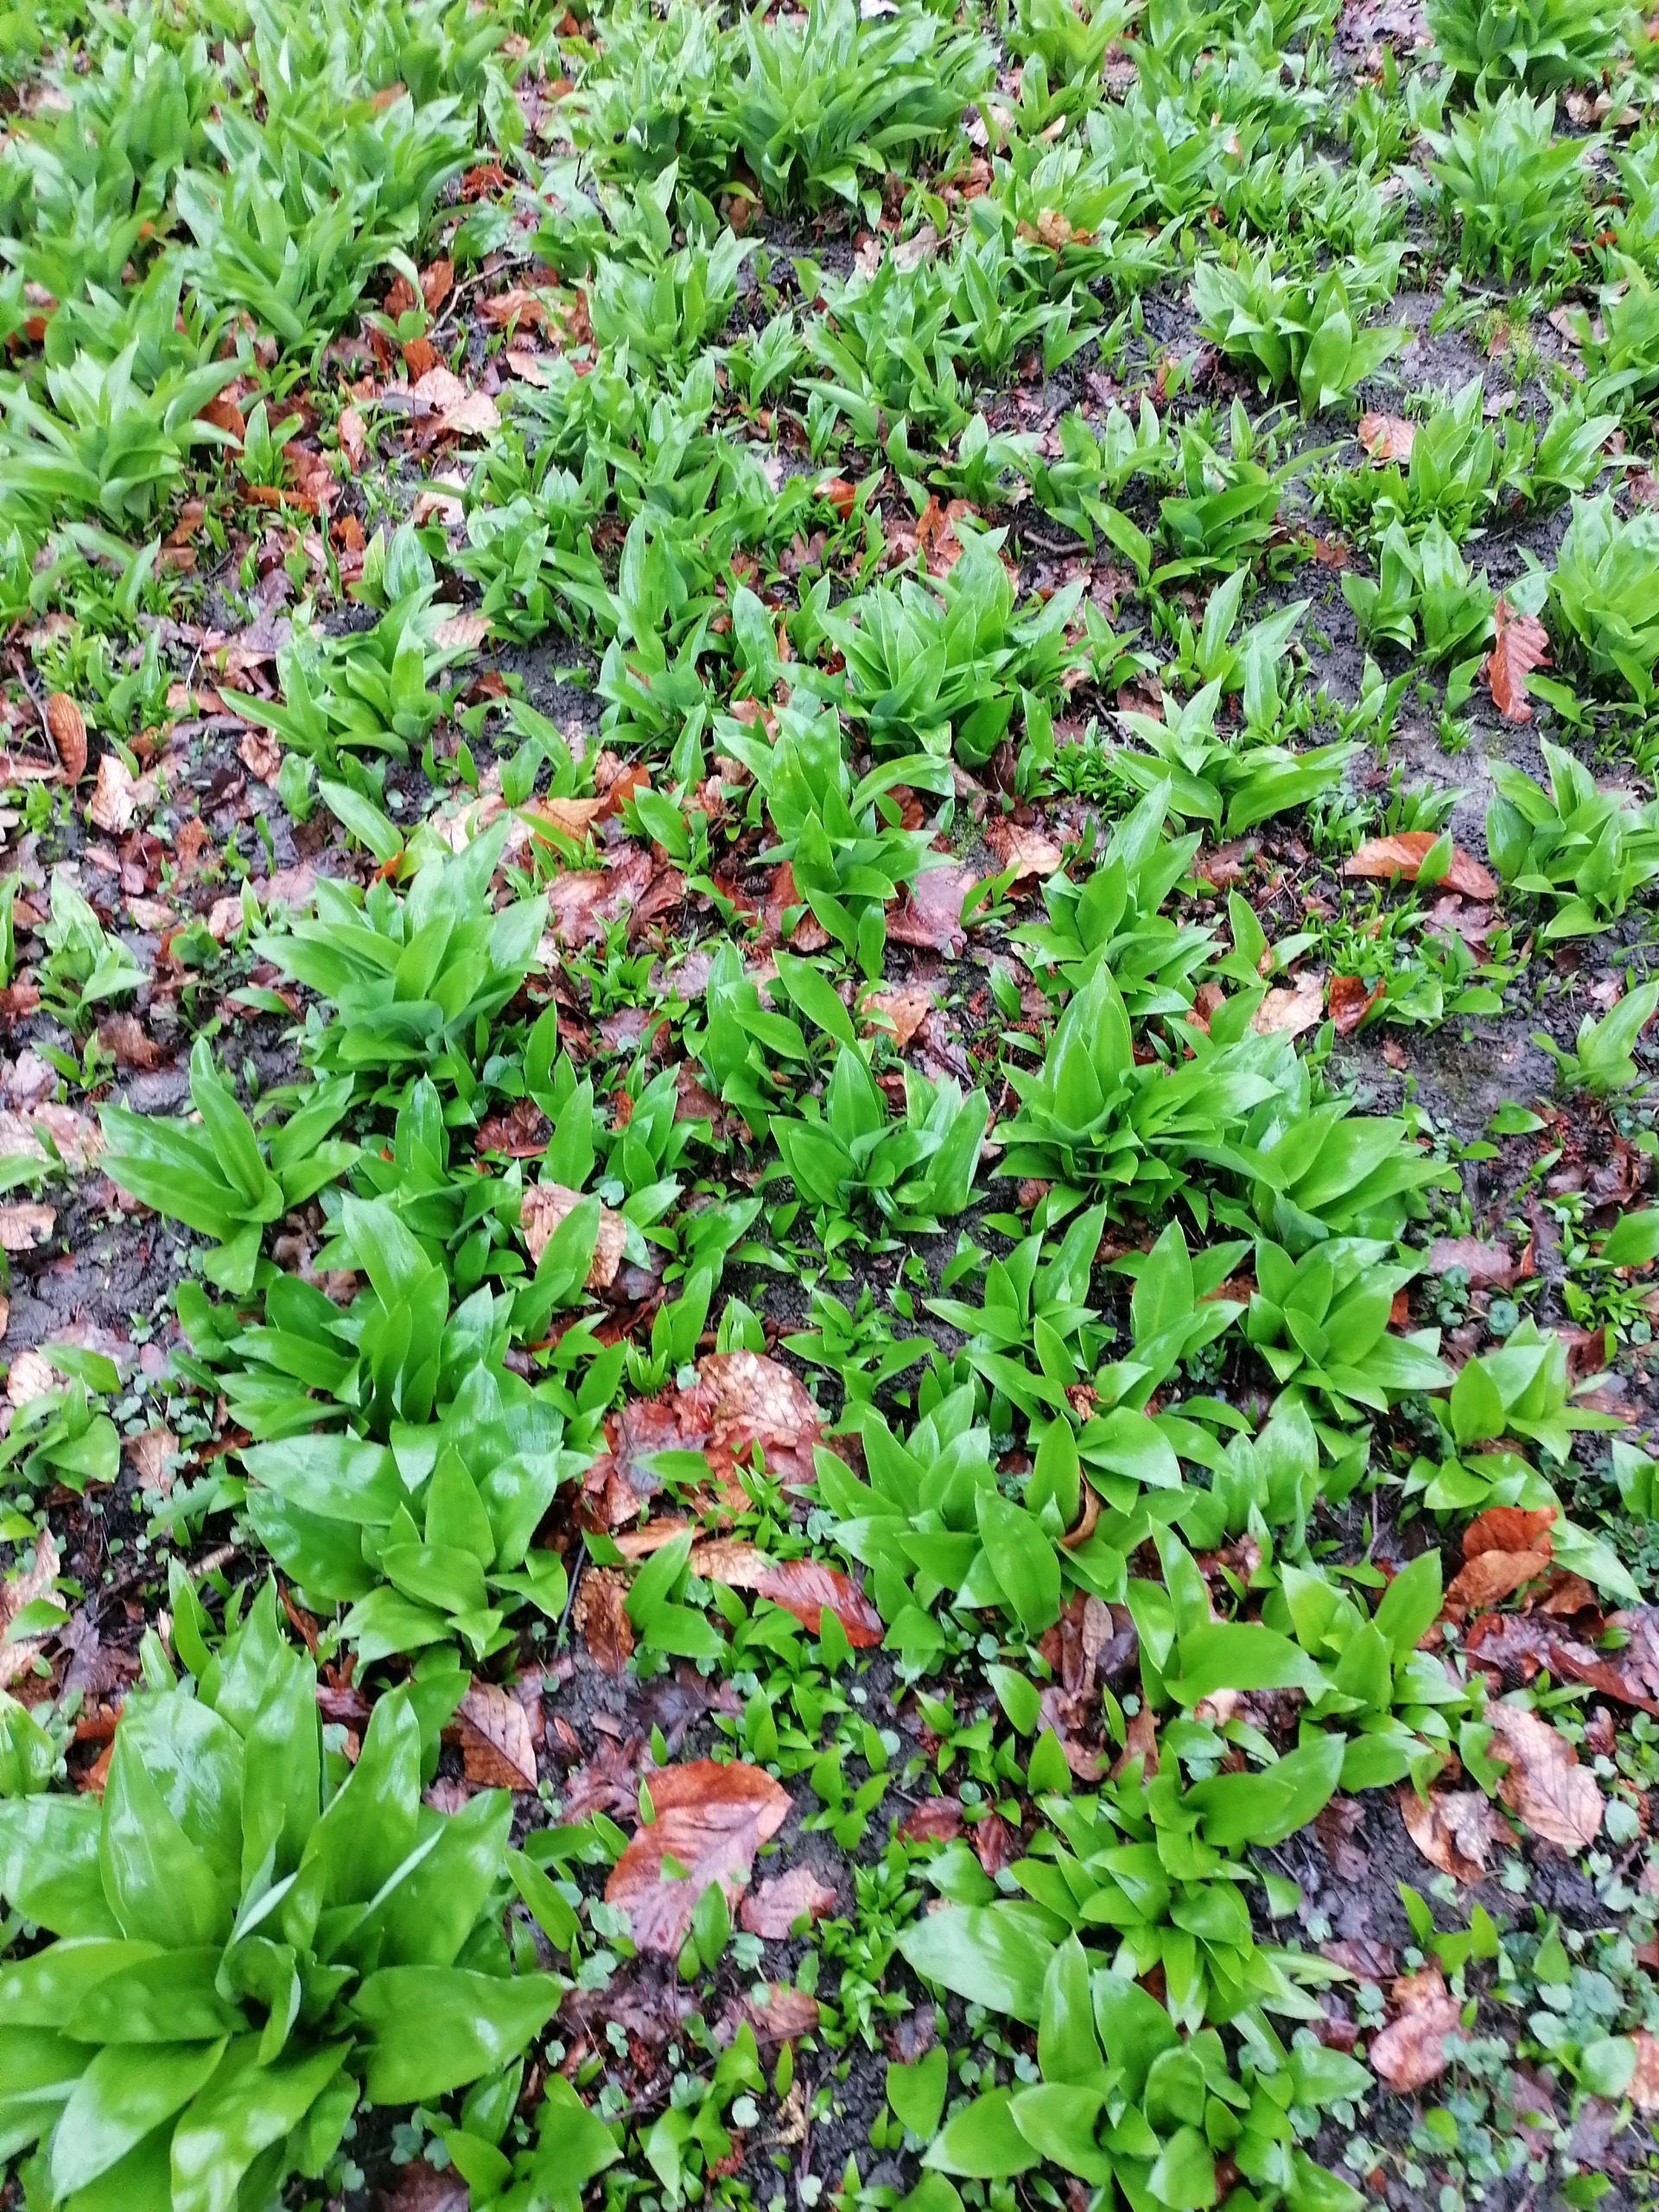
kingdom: Plantae
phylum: Tracheophyta
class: Liliopsida
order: Asparagales
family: Amaryllidaceae
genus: Allium
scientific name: Allium ursinum
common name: Rams-løg
